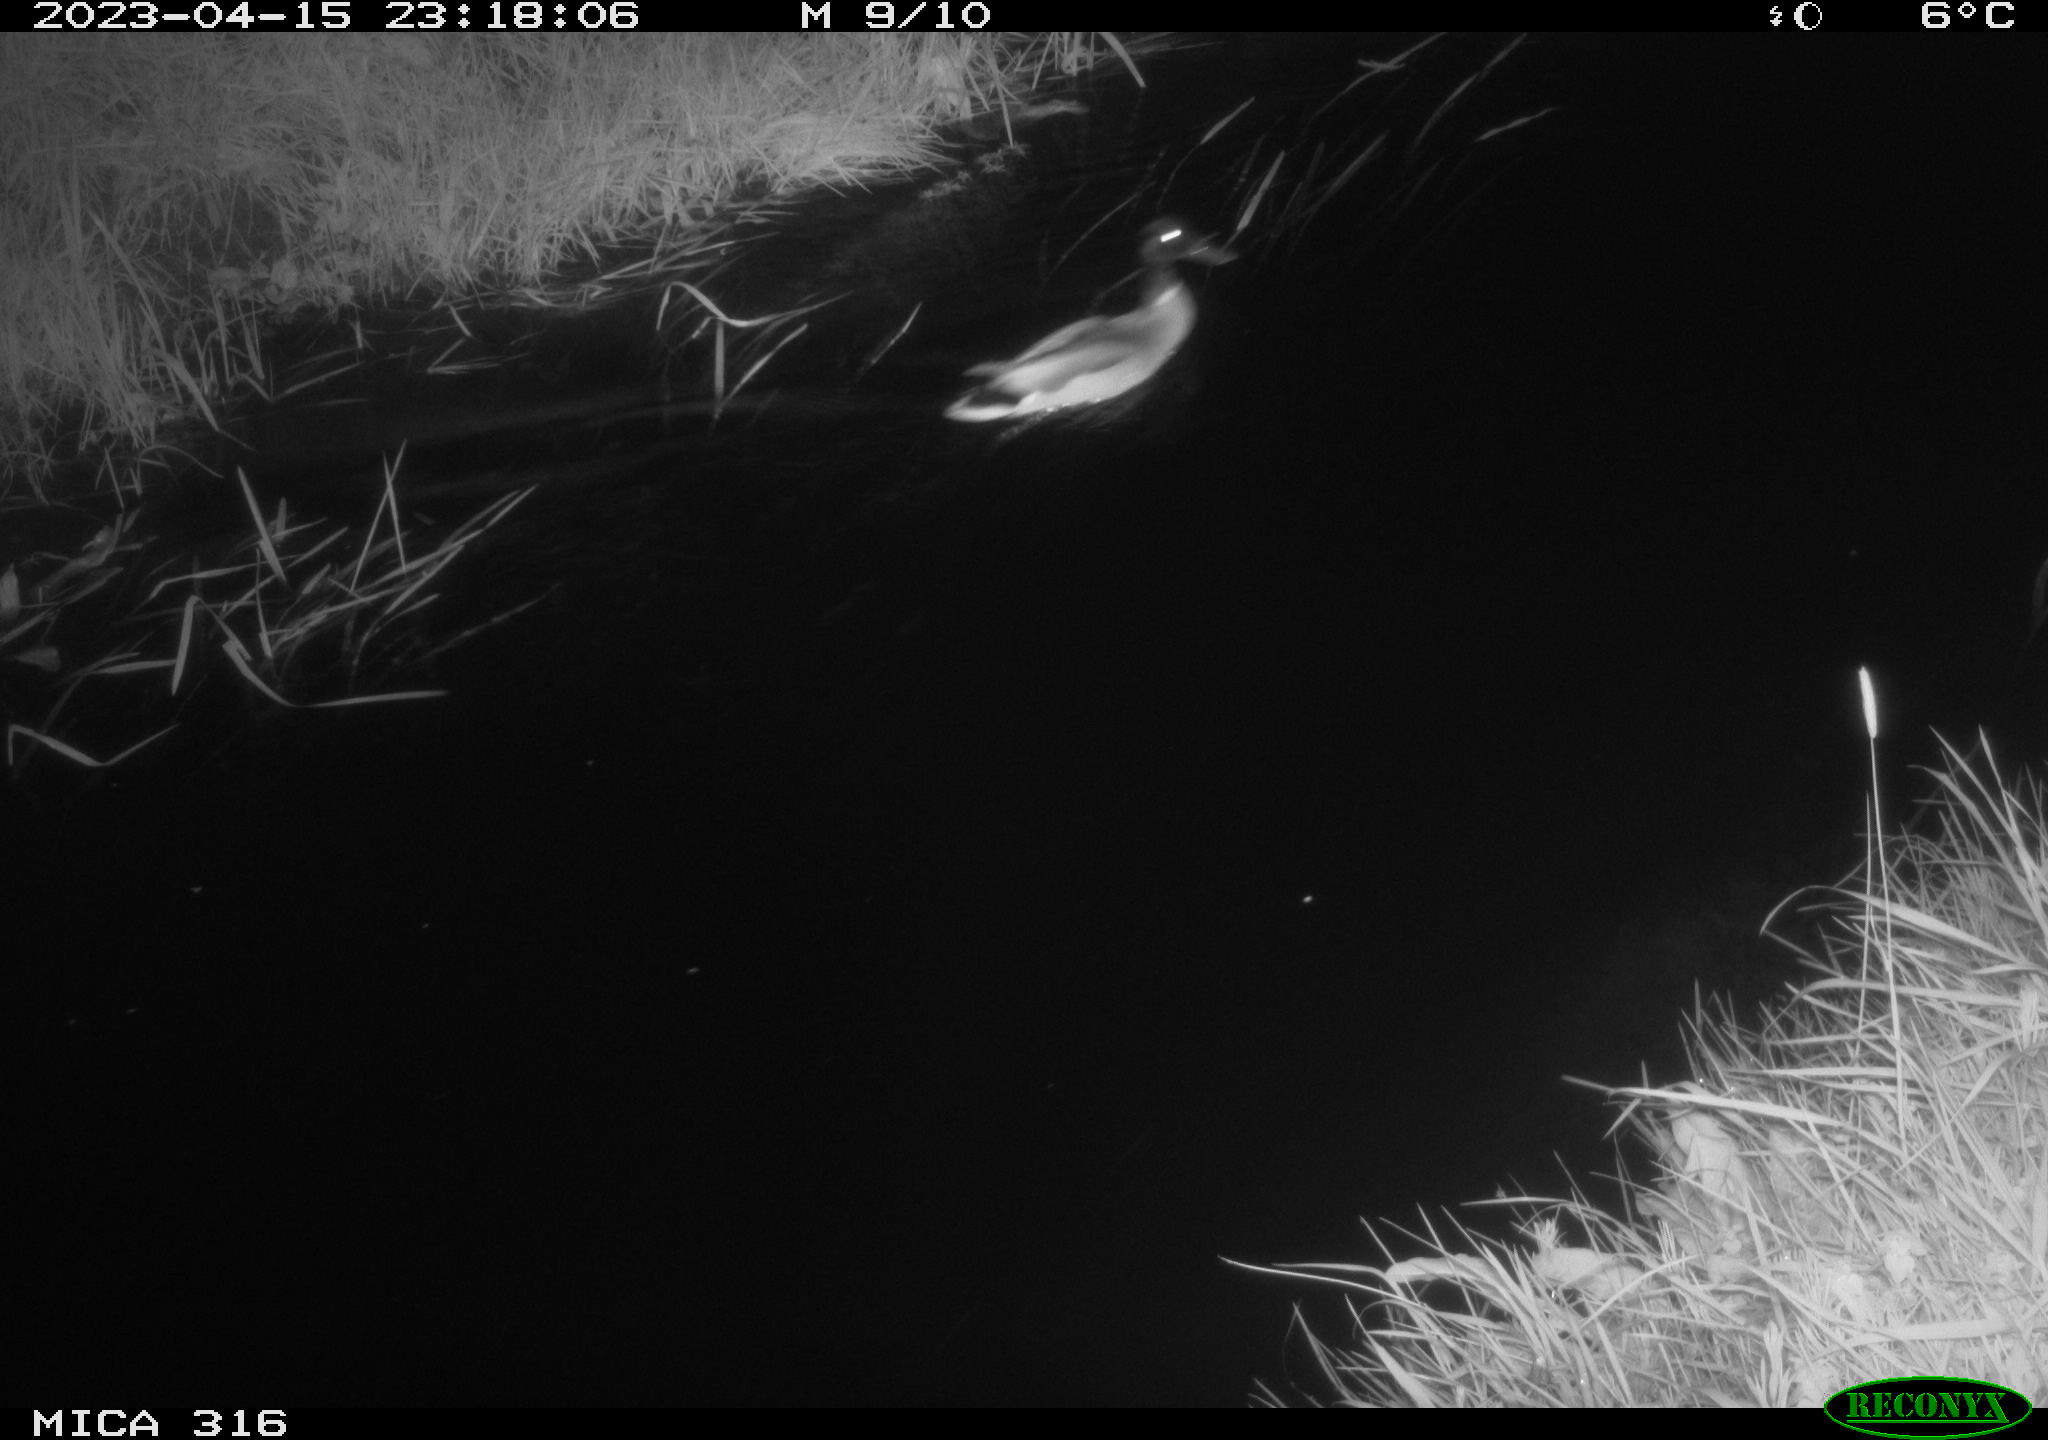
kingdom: Animalia
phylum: Chordata
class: Aves
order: Anseriformes
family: Anatidae
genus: Anas
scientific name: Anas
